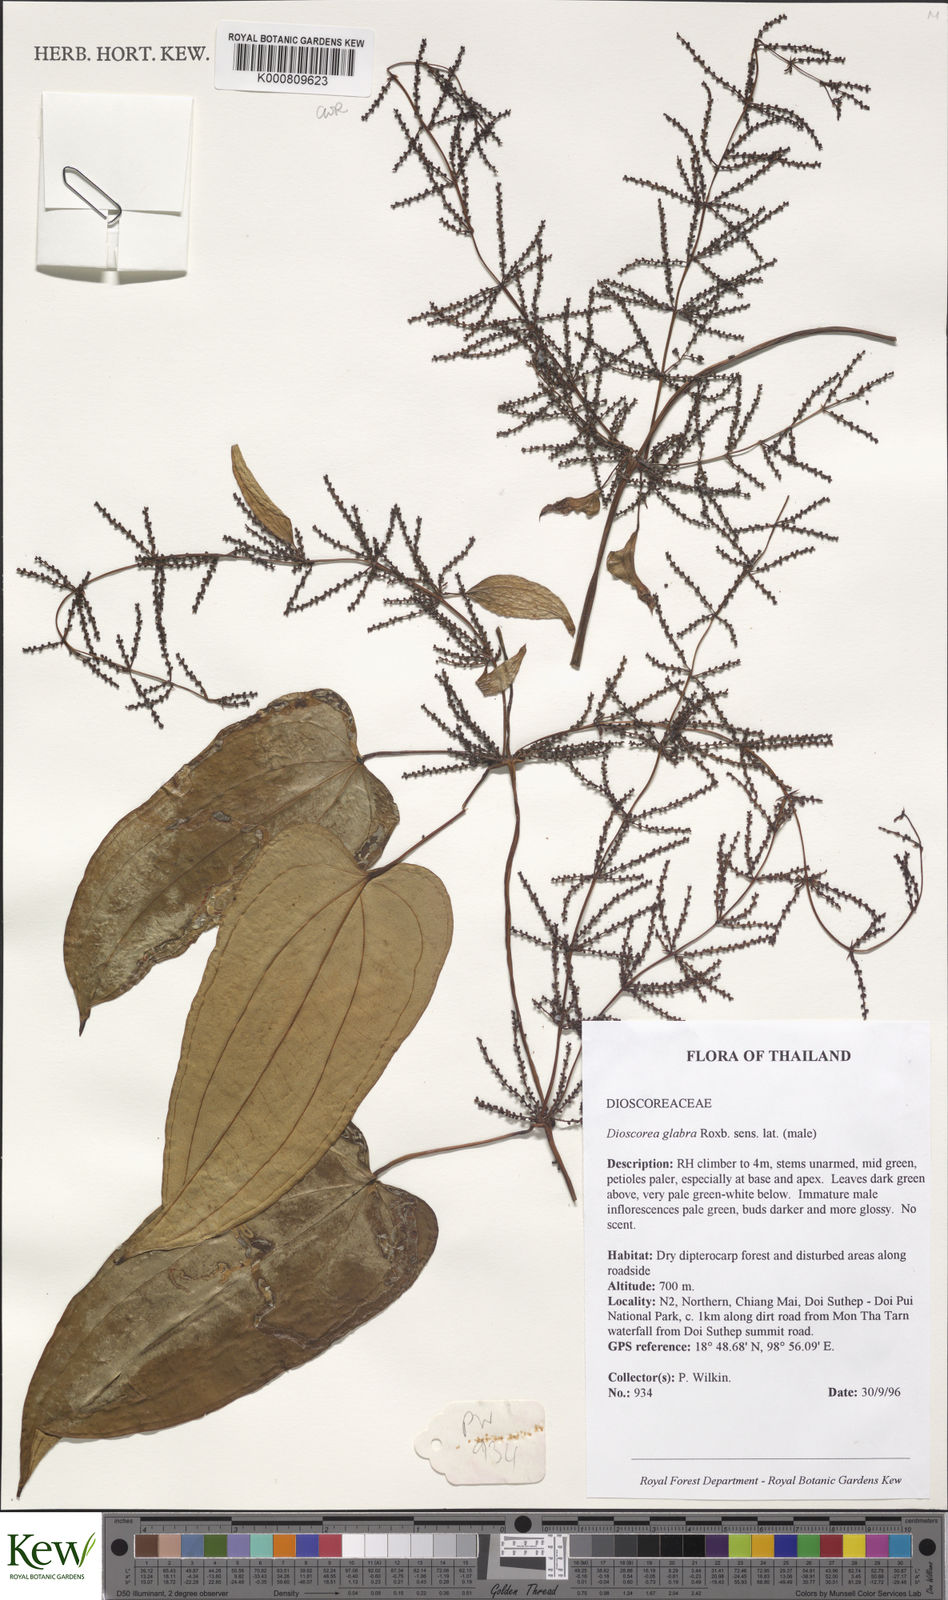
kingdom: Plantae
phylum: Tracheophyta
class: Liliopsida
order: Dioscoreales
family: Dioscoreaceae
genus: Dioscorea
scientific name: Dioscorea glabra
